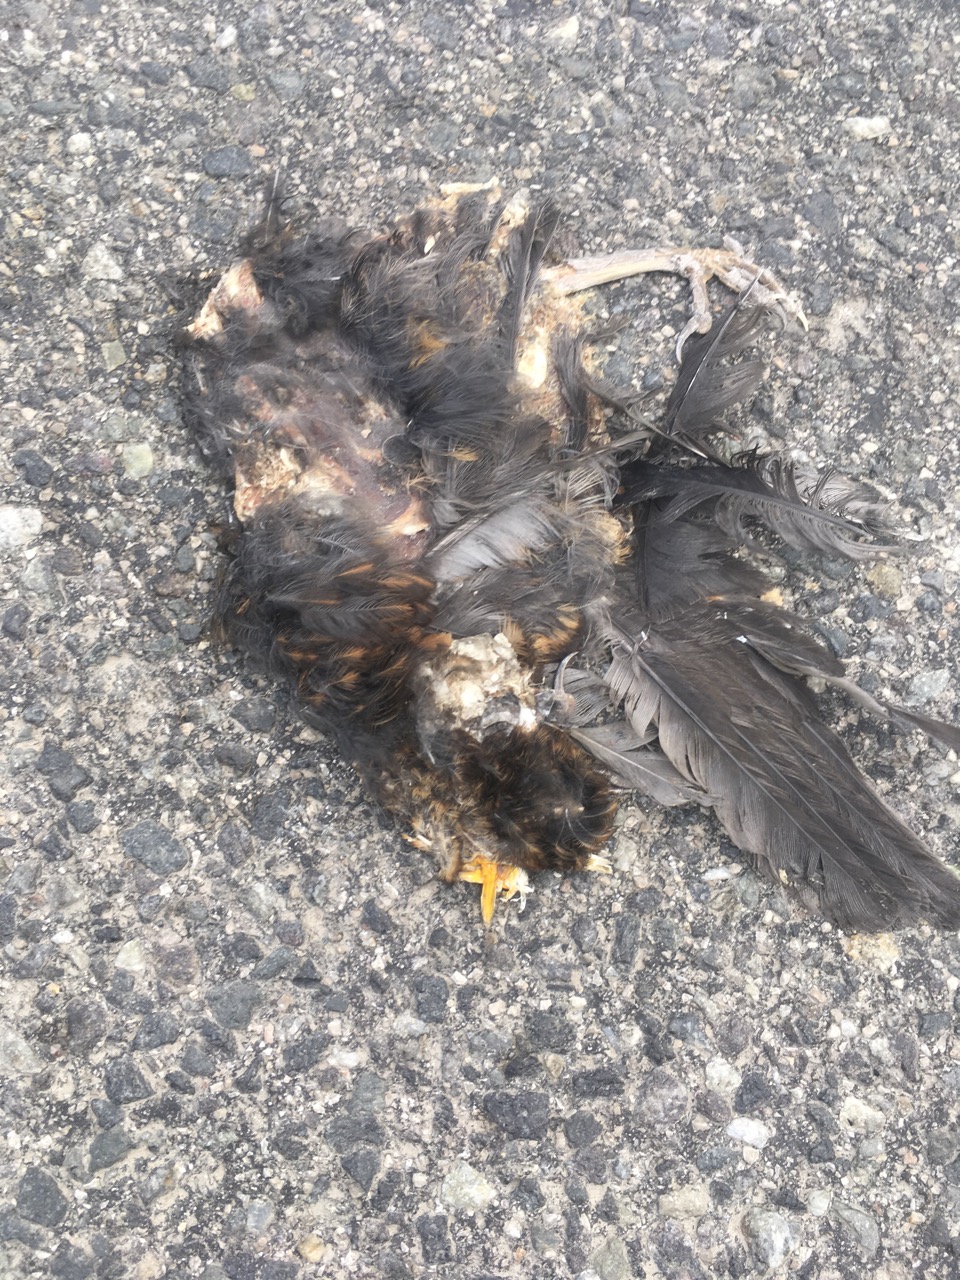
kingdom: Animalia
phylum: Chordata
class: Aves
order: Passeriformes
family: Turdidae
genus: Turdus
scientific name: Turdus merula
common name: Common blackbird
